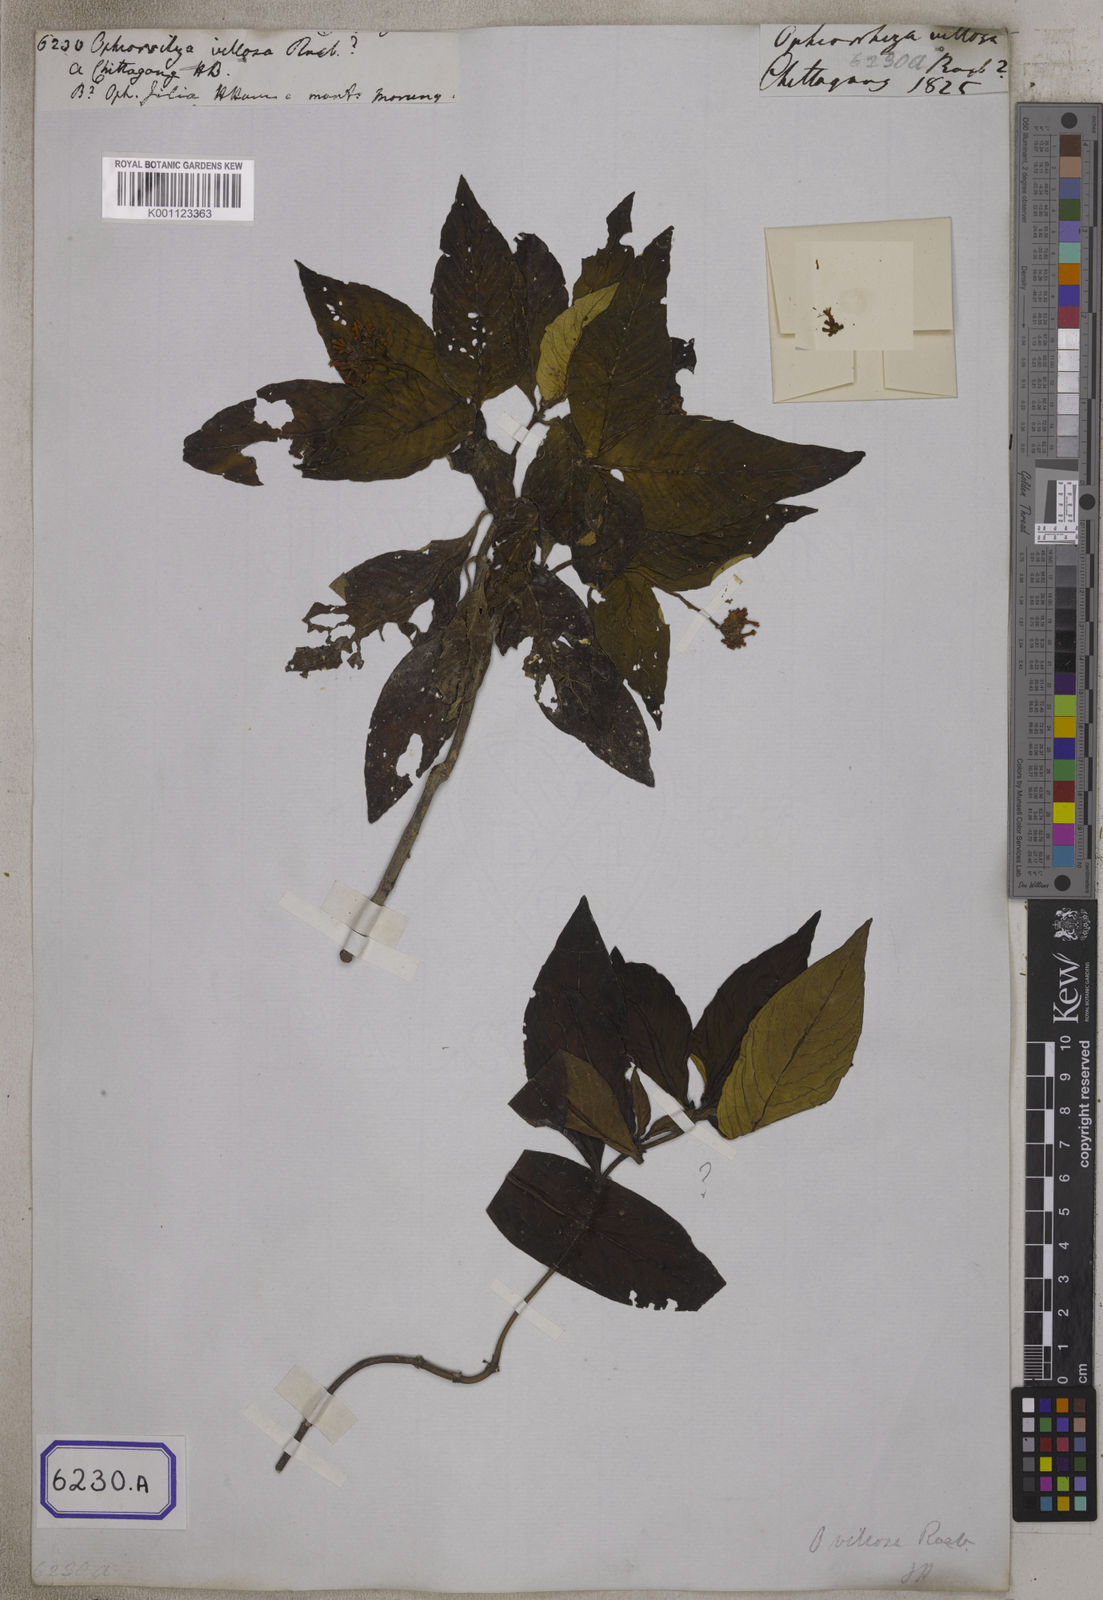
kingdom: Plantae
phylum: Tracheophyta
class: Magnoliopsida
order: Gentianales
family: Rubiaceae
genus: Ophiorrhiza
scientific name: Ophiorrhiza
